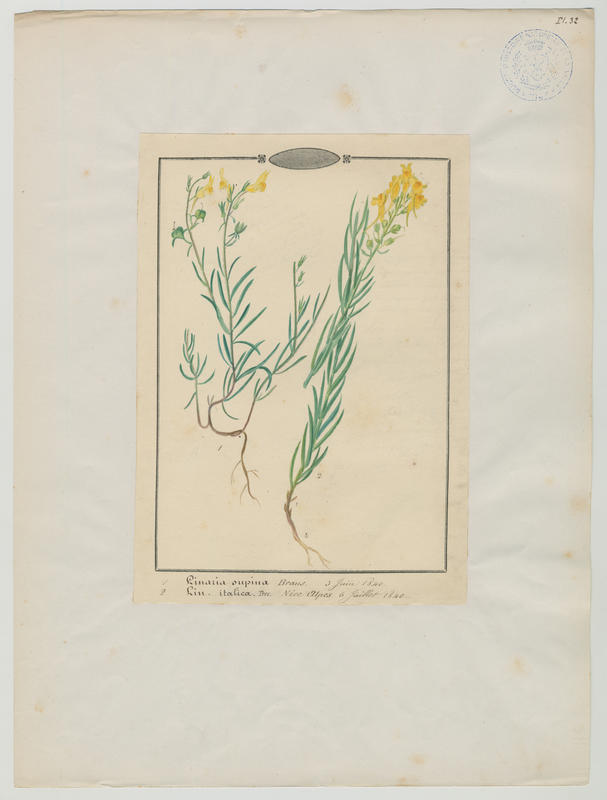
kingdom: Plantae
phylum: Tracheophyta
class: Magnoliopsida
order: Lamiales
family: Plantaginaceae
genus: Linaria
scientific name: Linaria angustissima
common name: Italian toadflax
